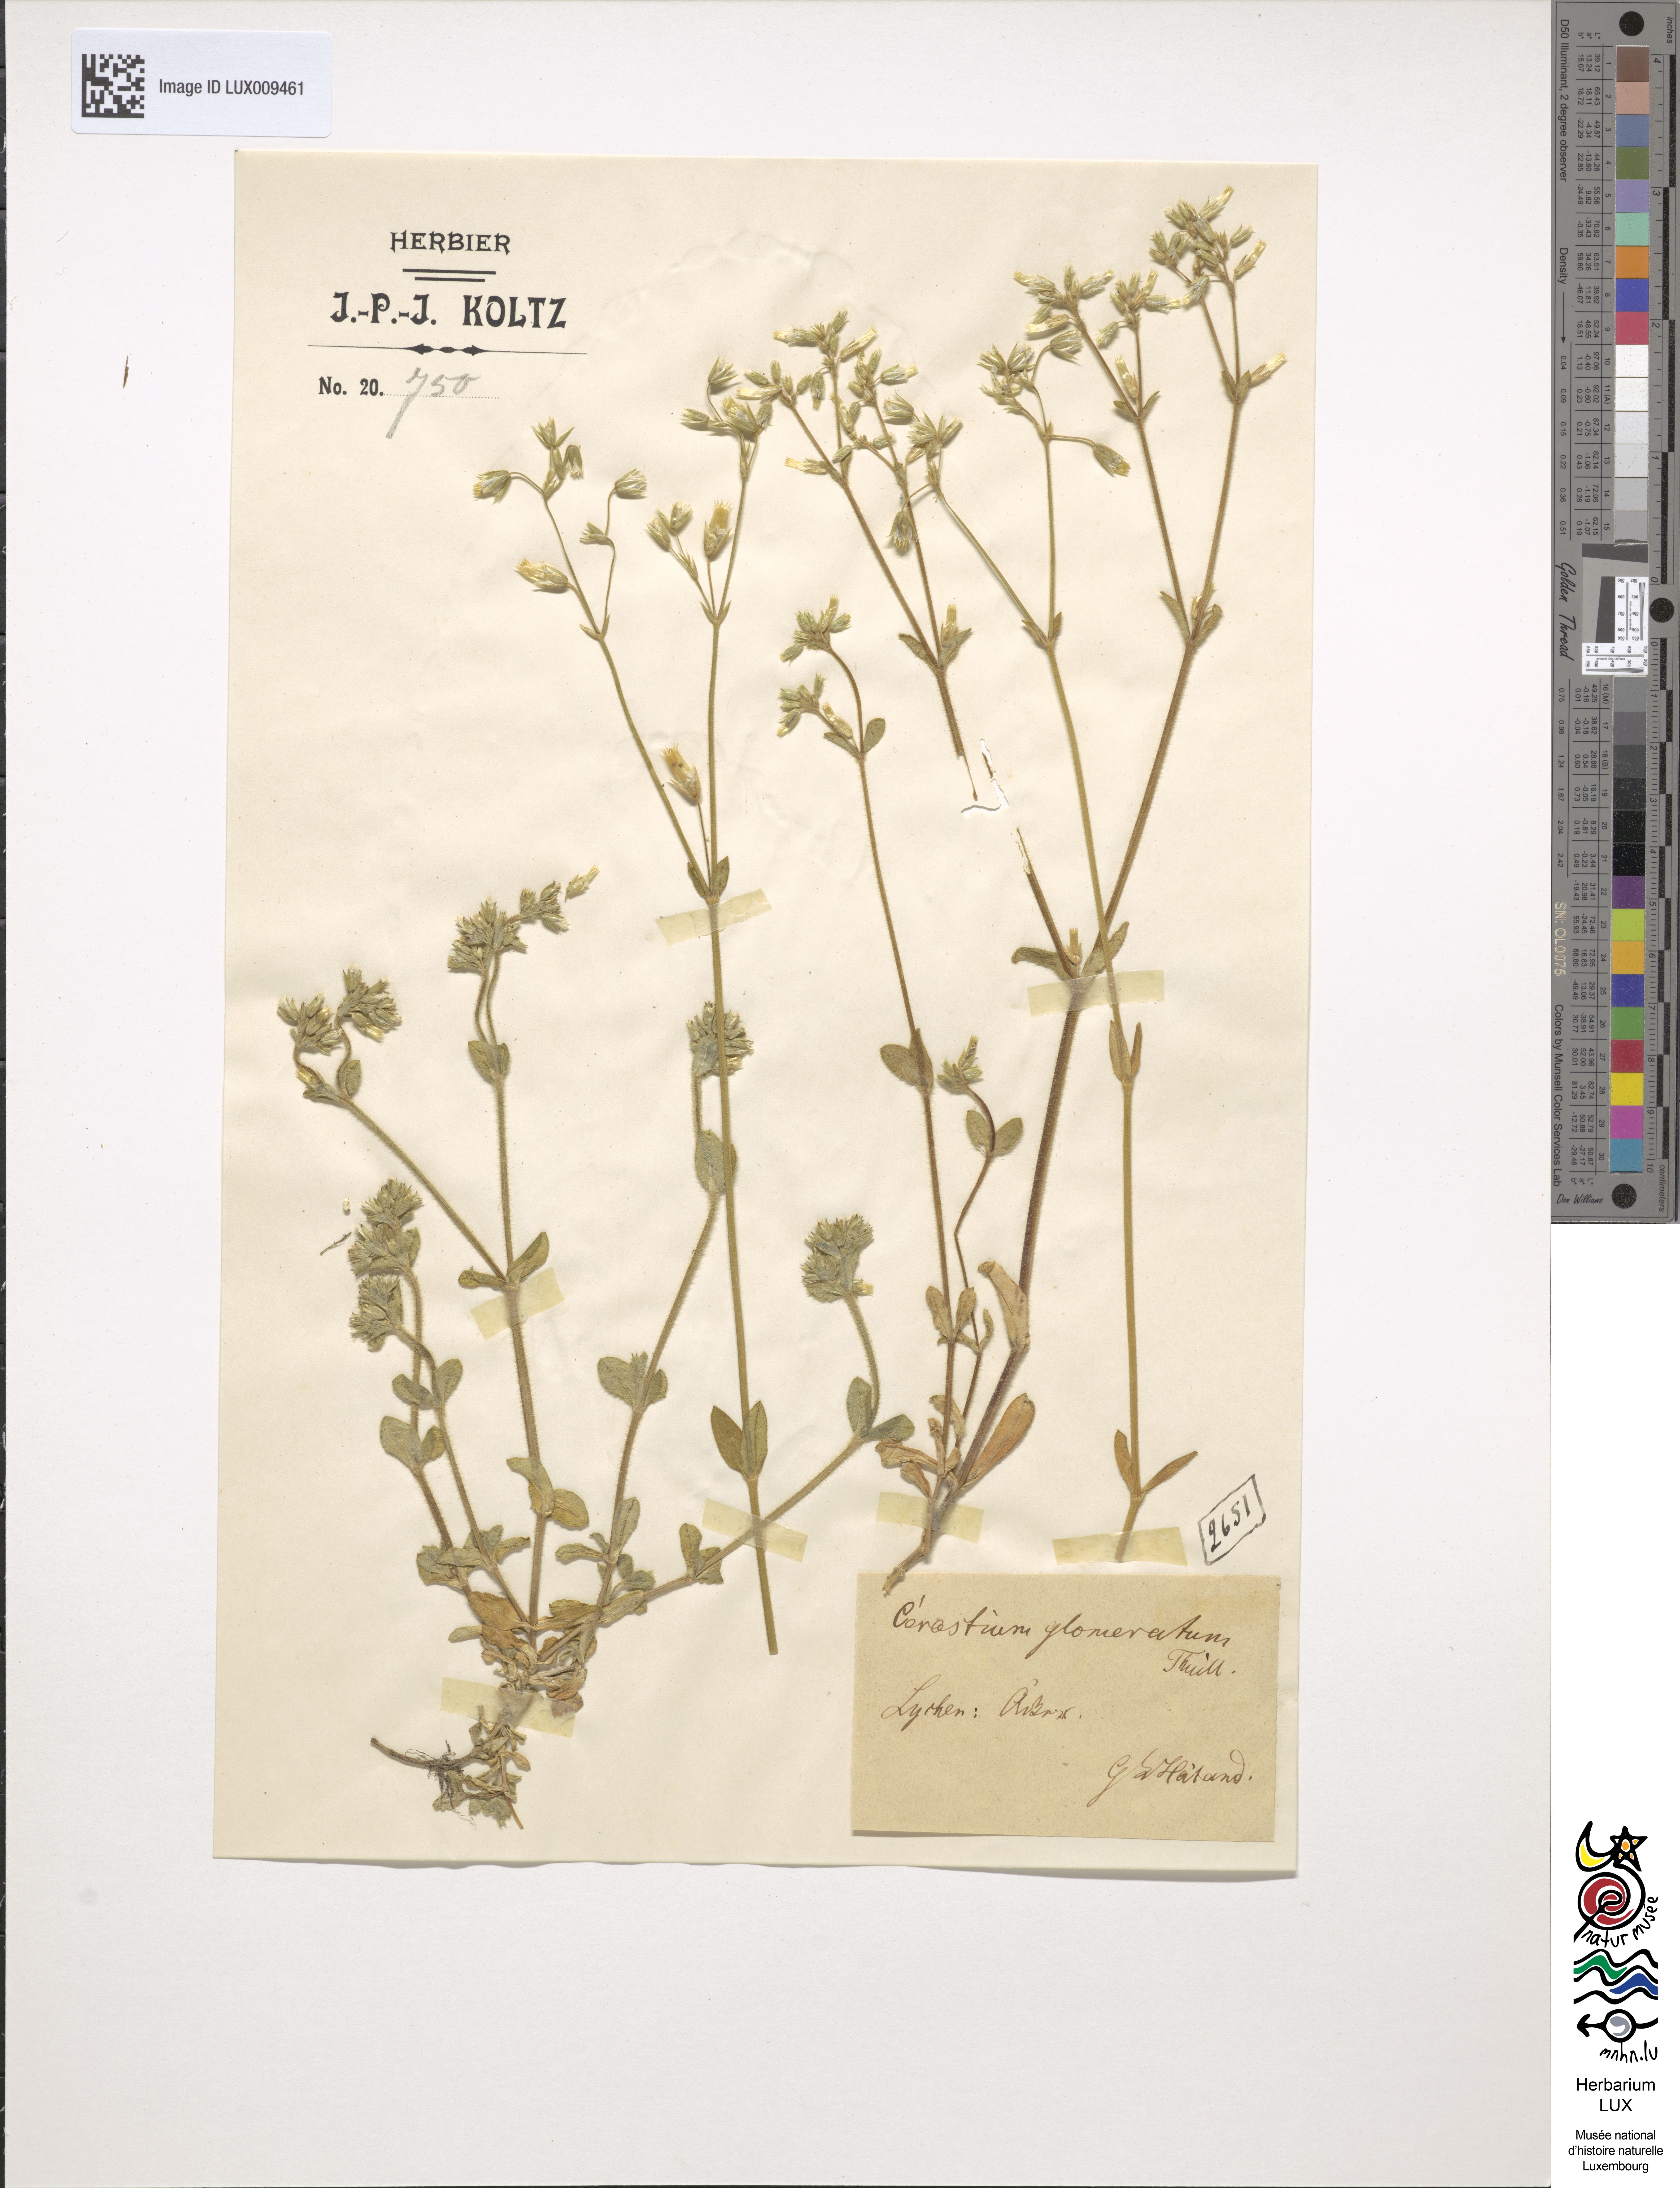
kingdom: Plantae
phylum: Tracheophyta
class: Magnoliopsida
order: Caryophyllales
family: Caryophyllaceae
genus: Cerastium
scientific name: Cerastium glomeratum
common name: Sticky chickweed
